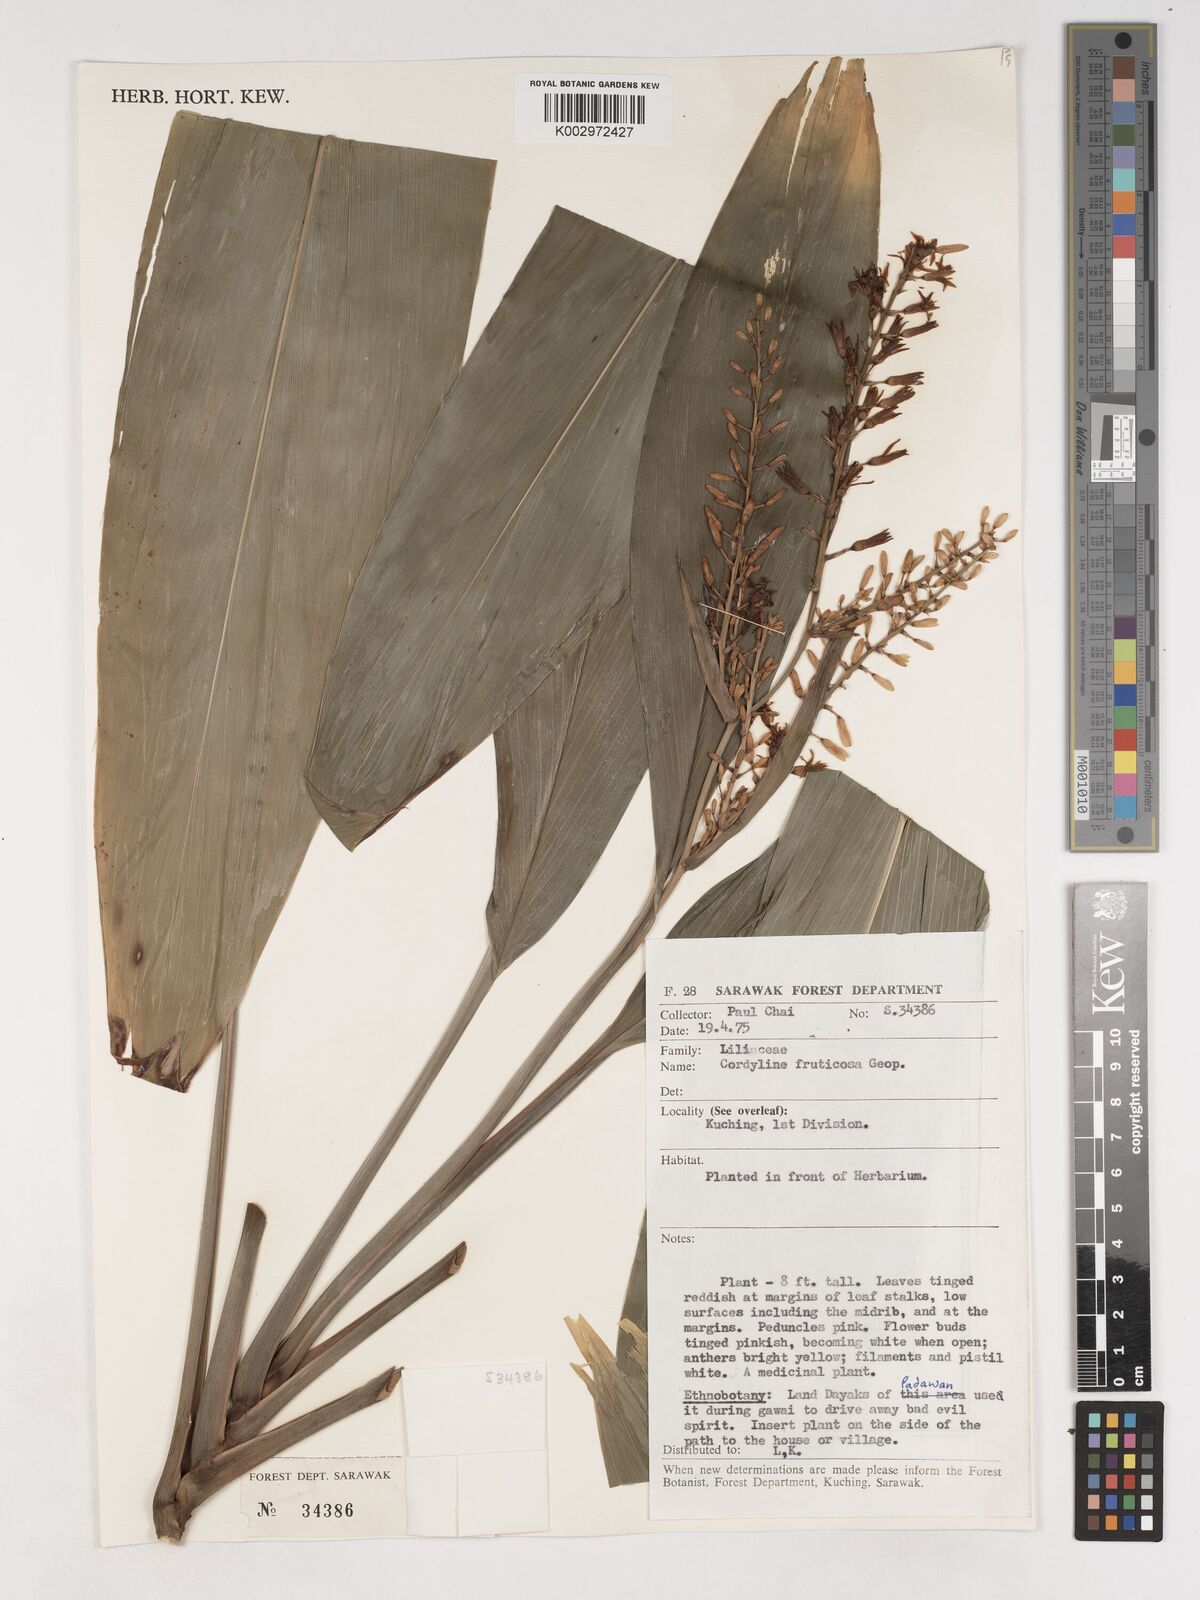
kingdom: Plantae
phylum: Tracheophyta
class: Liliopsida
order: Asparagales
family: Asparagaceae
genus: Dracaena
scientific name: Dracaena angustifolia
